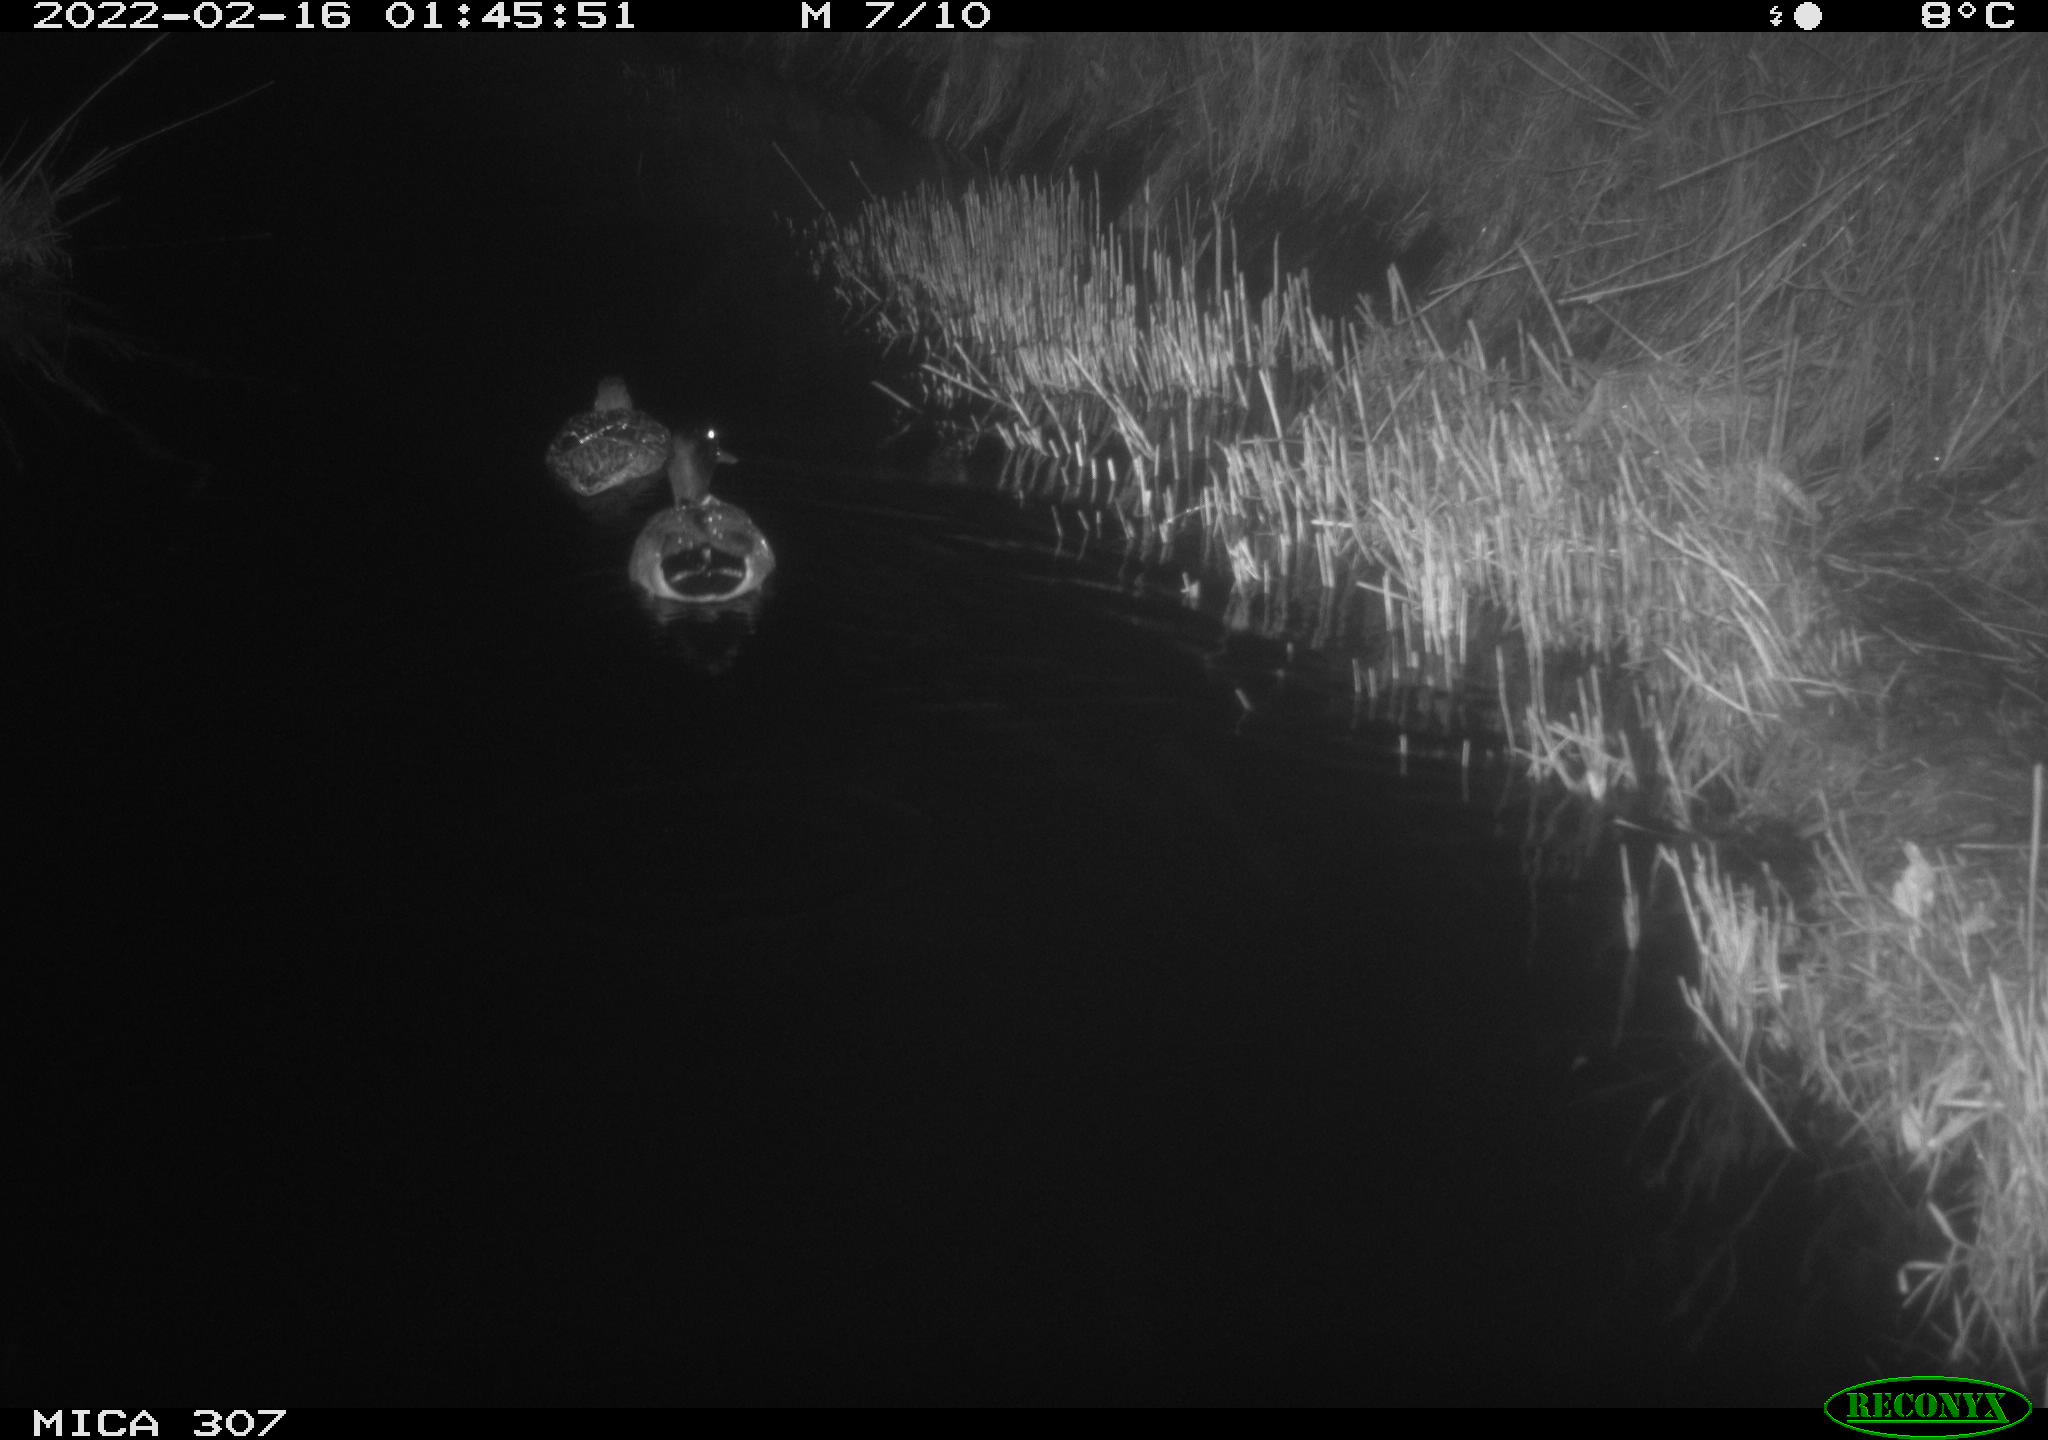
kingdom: Animalia
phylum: Chordata
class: Aves
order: Anseriformes
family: Anatidae
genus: Anas
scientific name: Anas platyrhynchos
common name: Mallard
